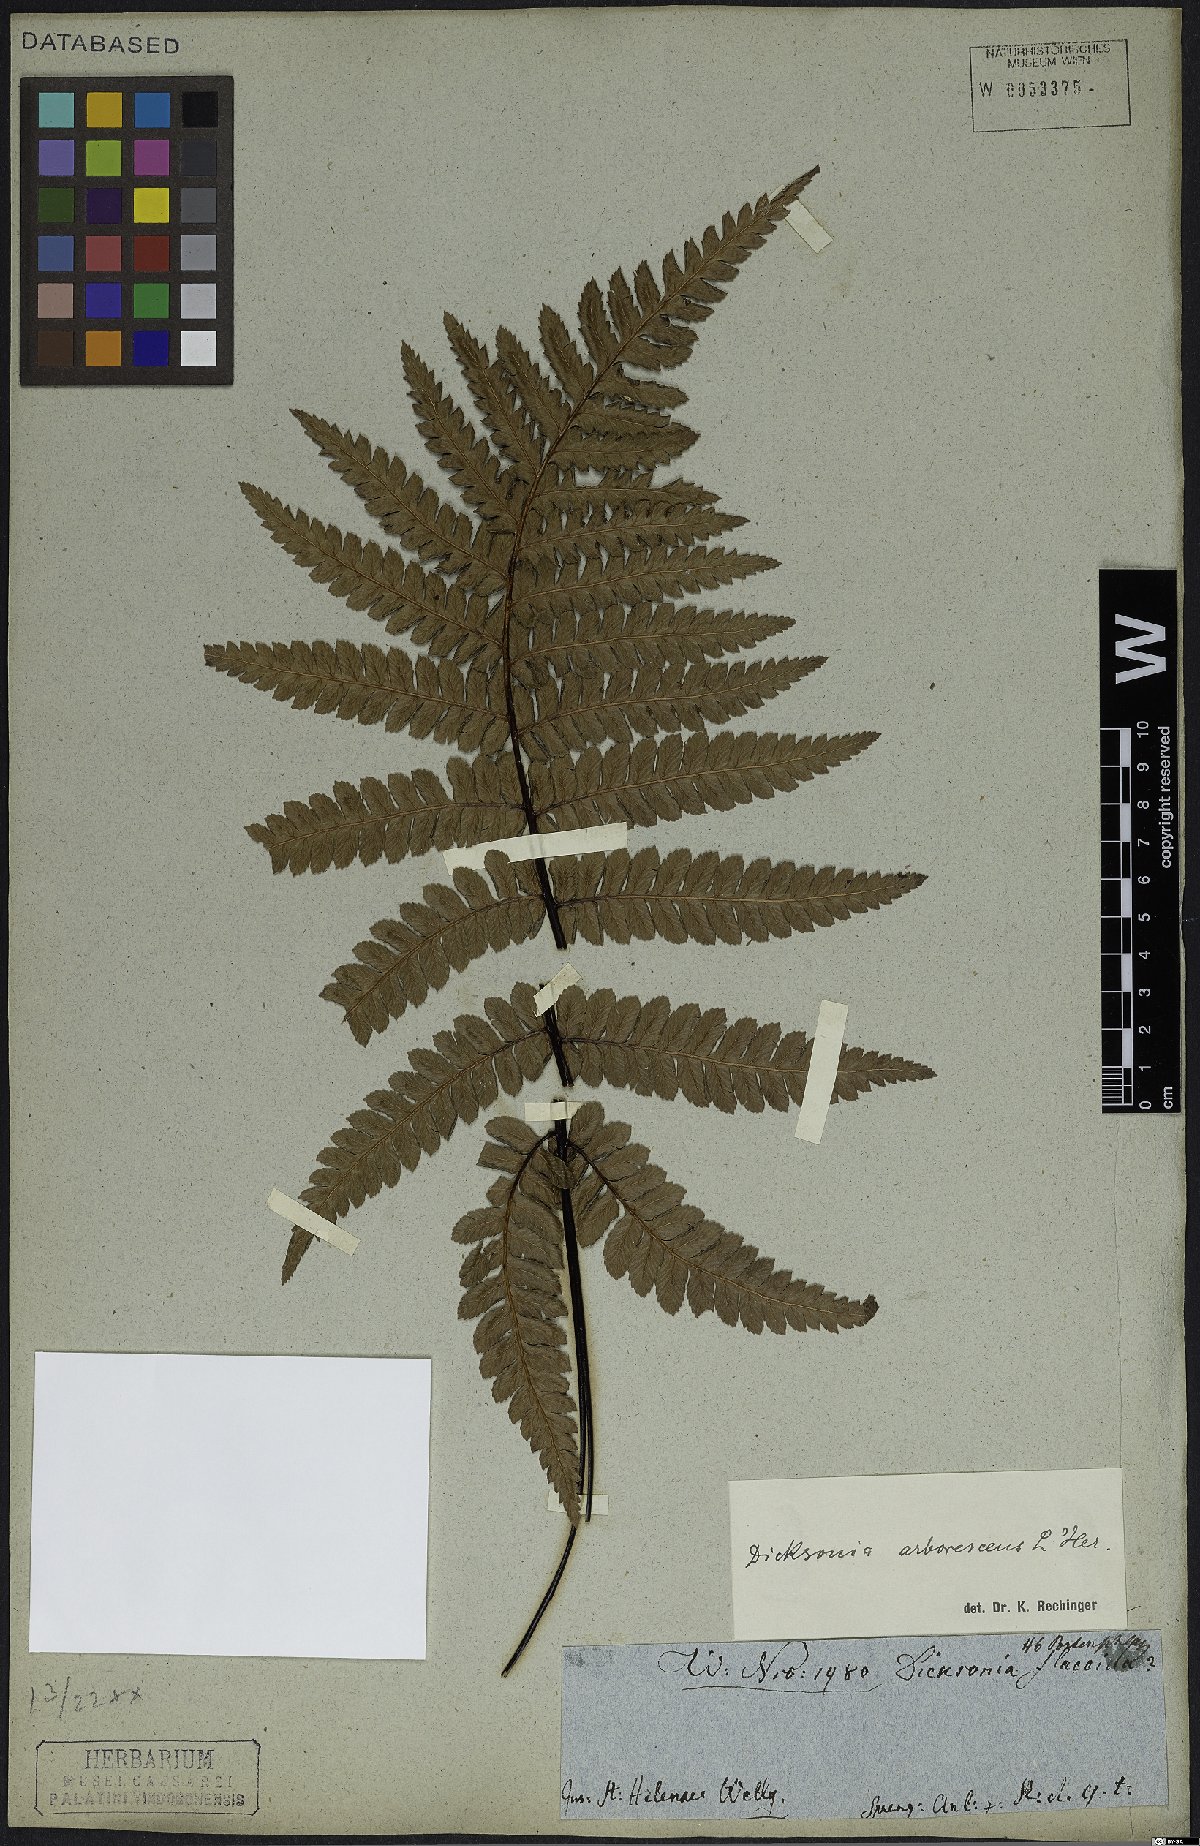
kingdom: Plantae
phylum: Tracheophyta
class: Polypodiopsida
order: Cyatheales
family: Dicksoniaceae
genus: Dicksonia
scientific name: Dicksonia arborescens
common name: St helena tree fern
